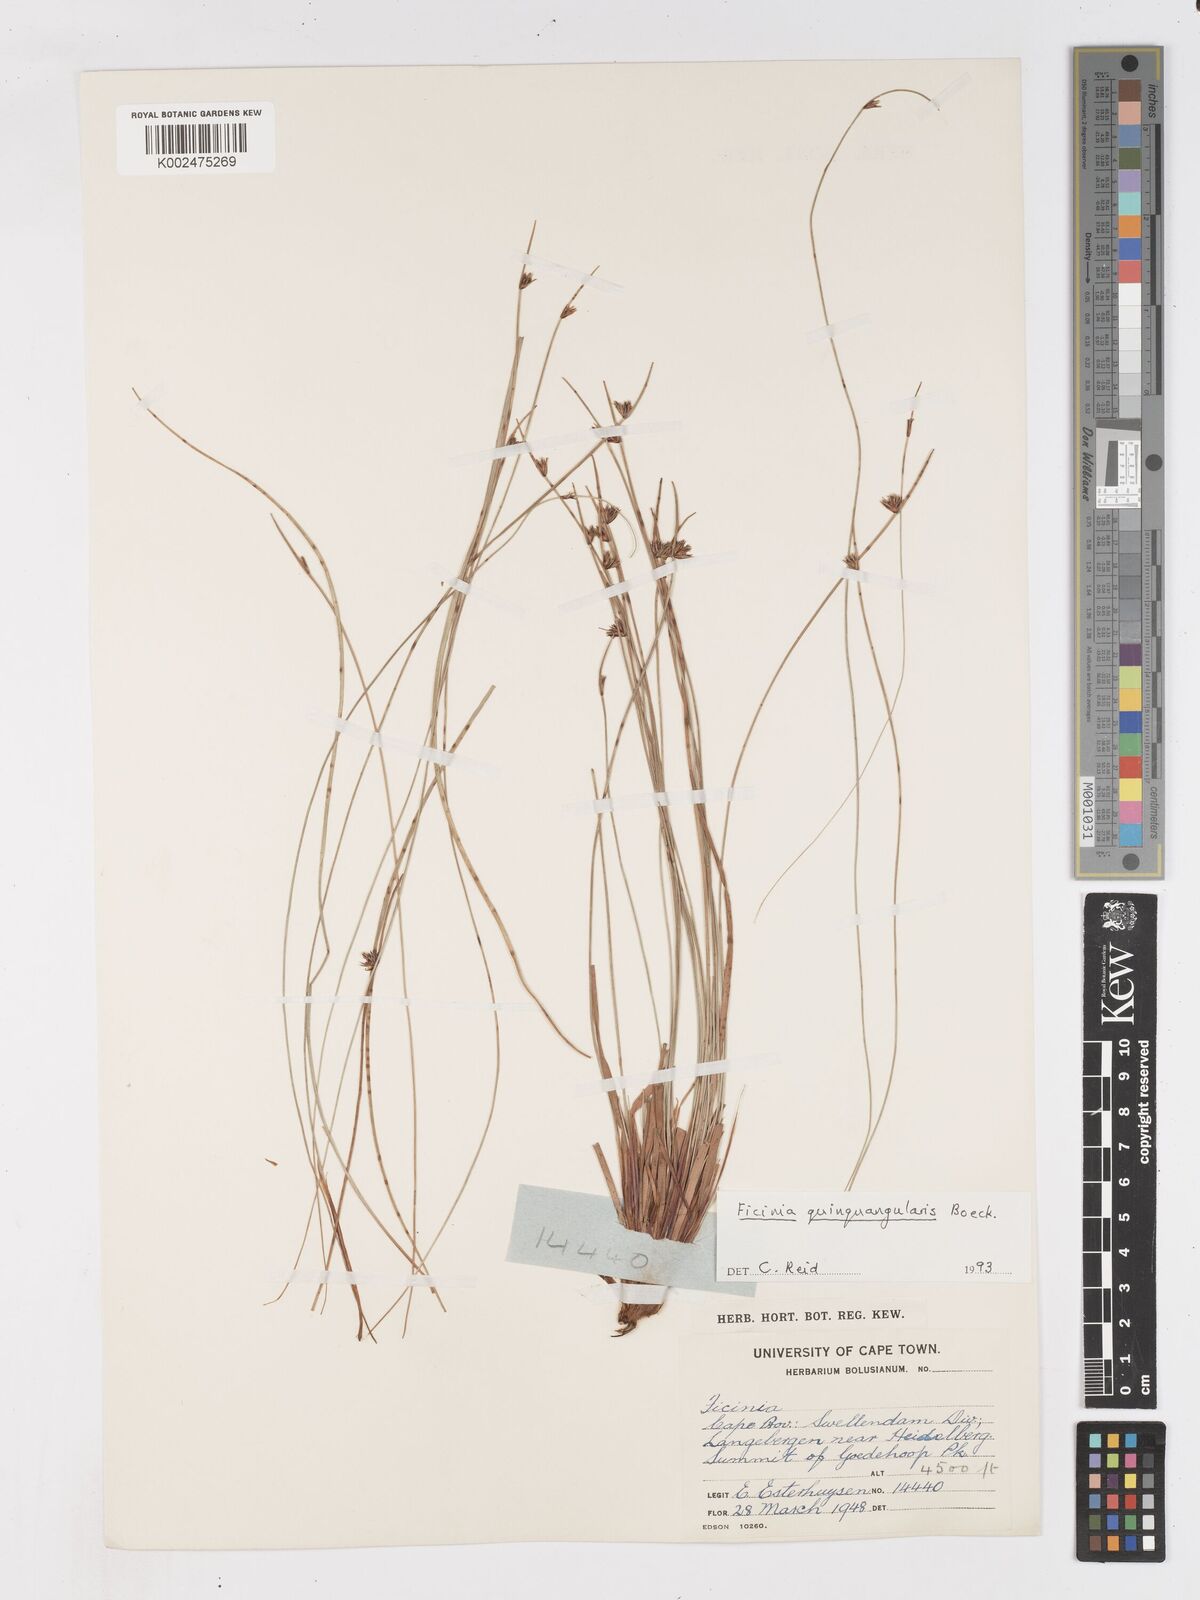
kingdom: Plantae
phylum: Tracheophyta
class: Liliopsida
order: Poales
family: Cyperaceae
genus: Ficinia
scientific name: Ficinia quinquangularis
